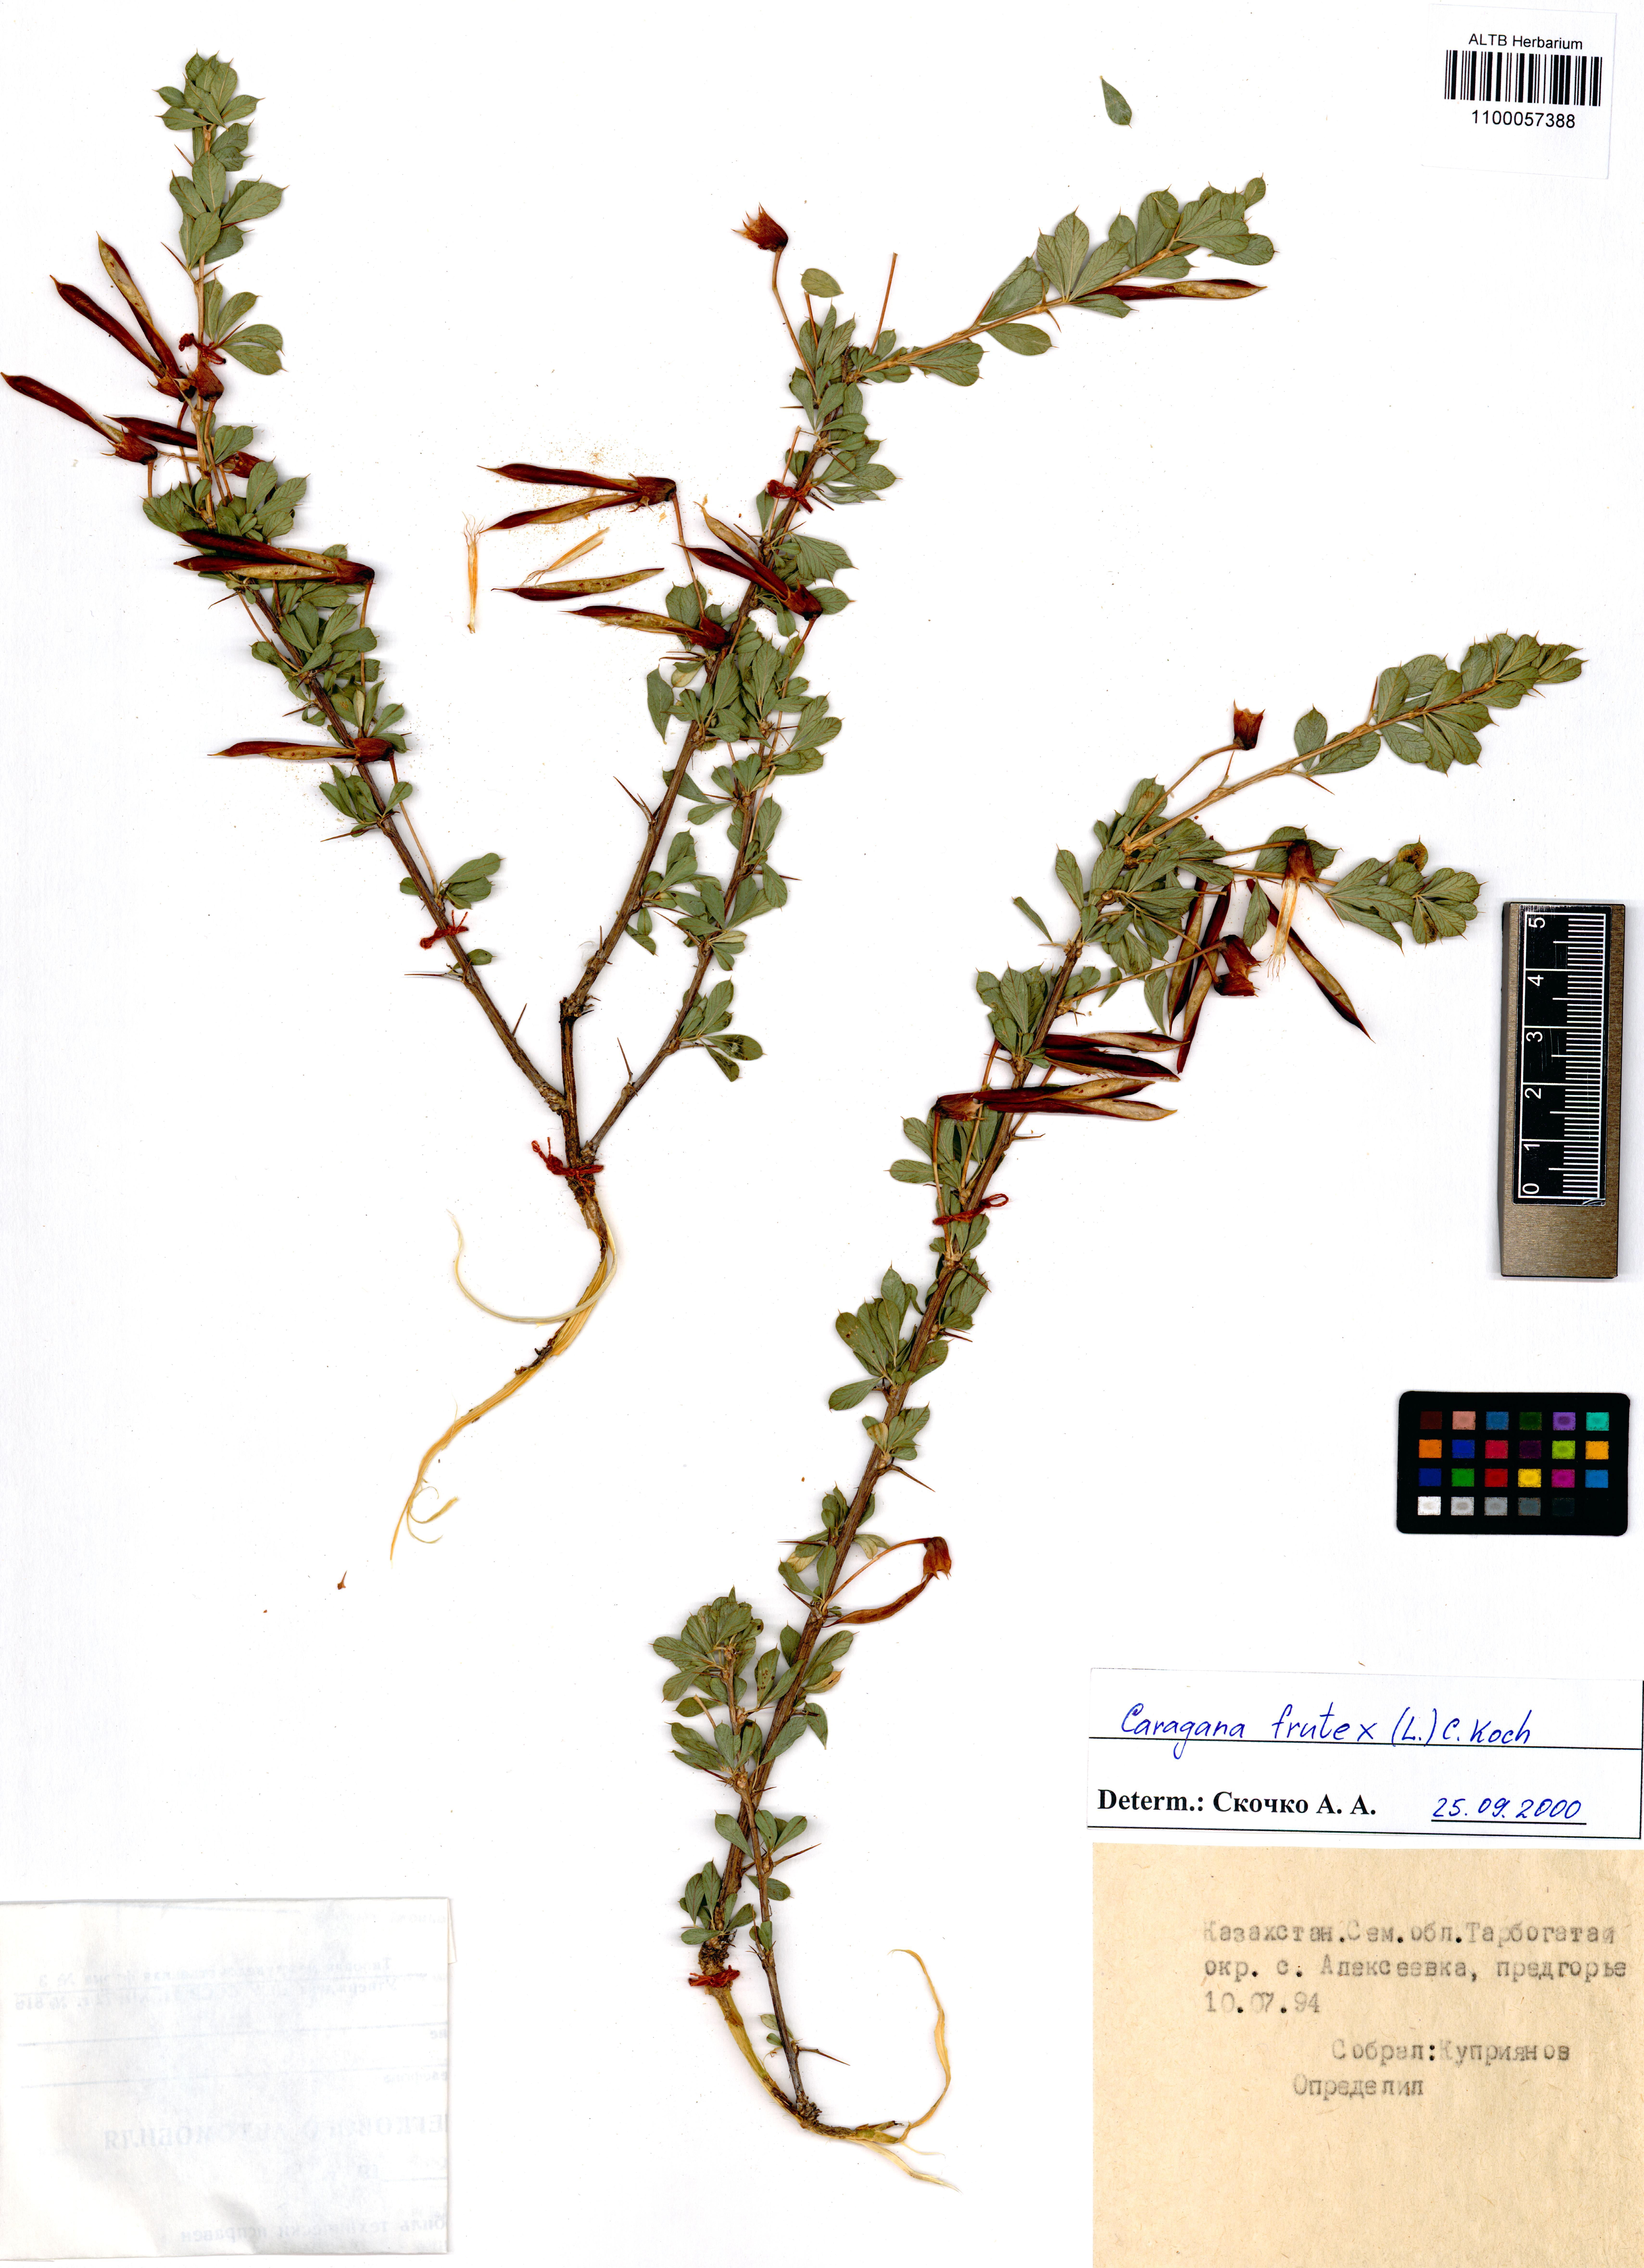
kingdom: Plantae
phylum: Tracheophyta
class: Magnoliopsida
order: Fabales
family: Fabaceae
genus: Caragana
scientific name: Caragana frutex
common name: Russian peashrub
